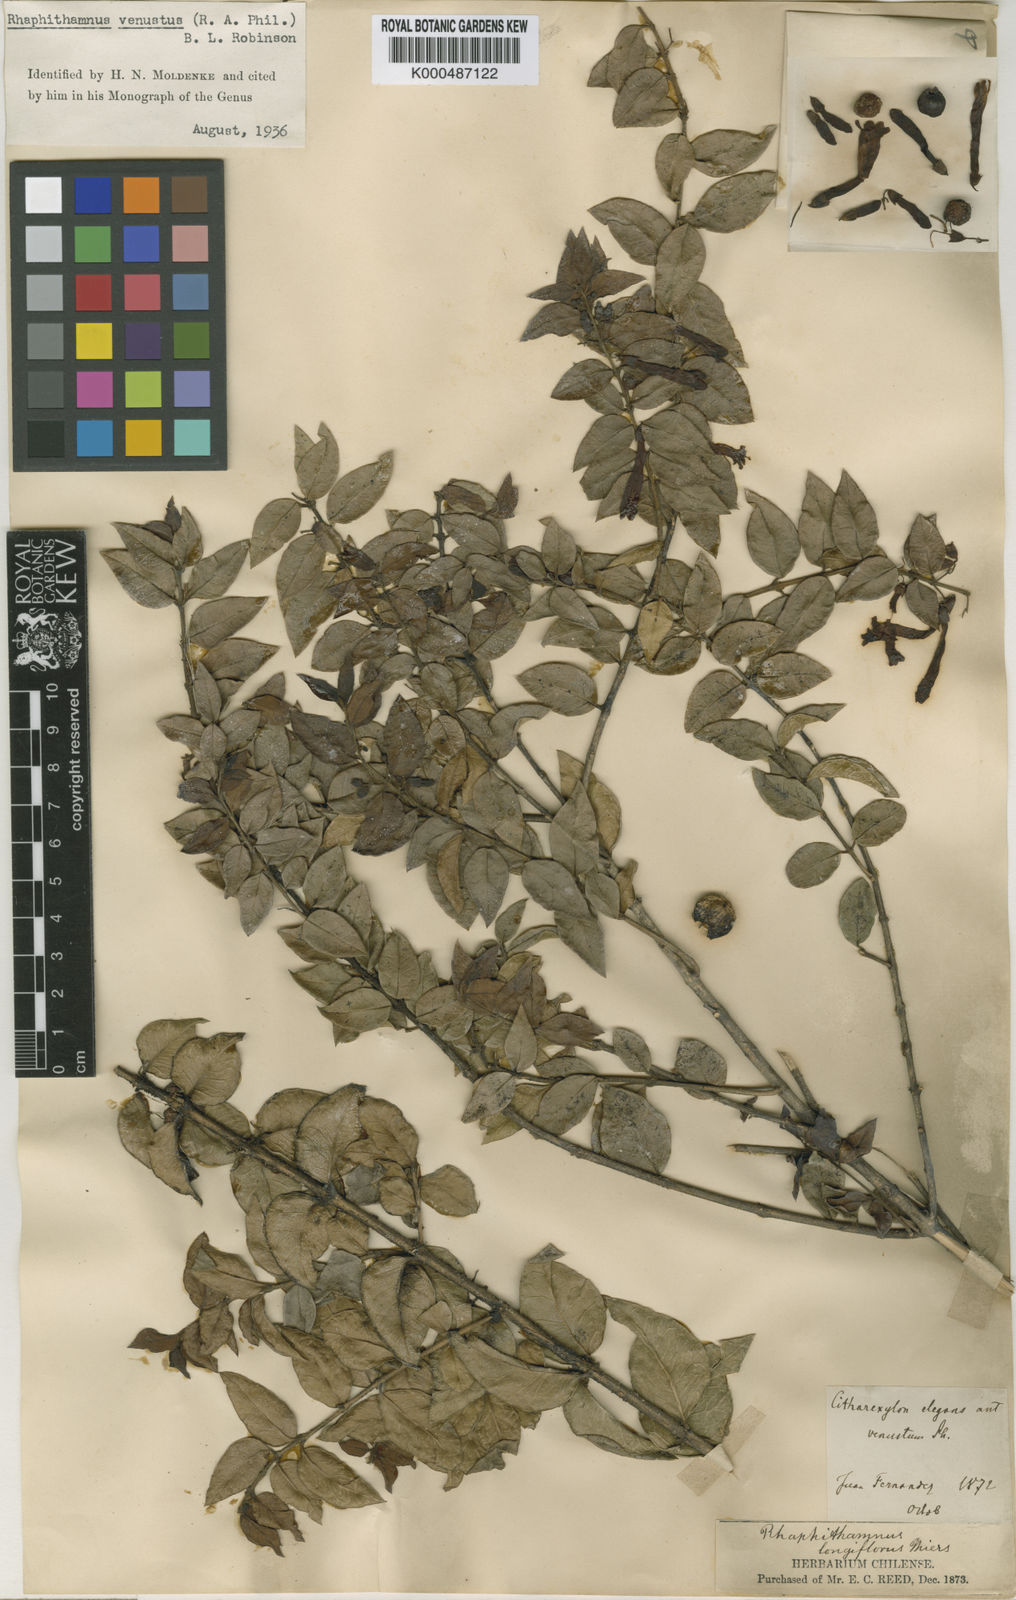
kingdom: Plantae
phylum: Tracheophyta
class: Magnoliopsida
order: Lamiales
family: Verbenaceae
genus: Rhaphithamnus
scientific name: Rhaphithamnus venustus
